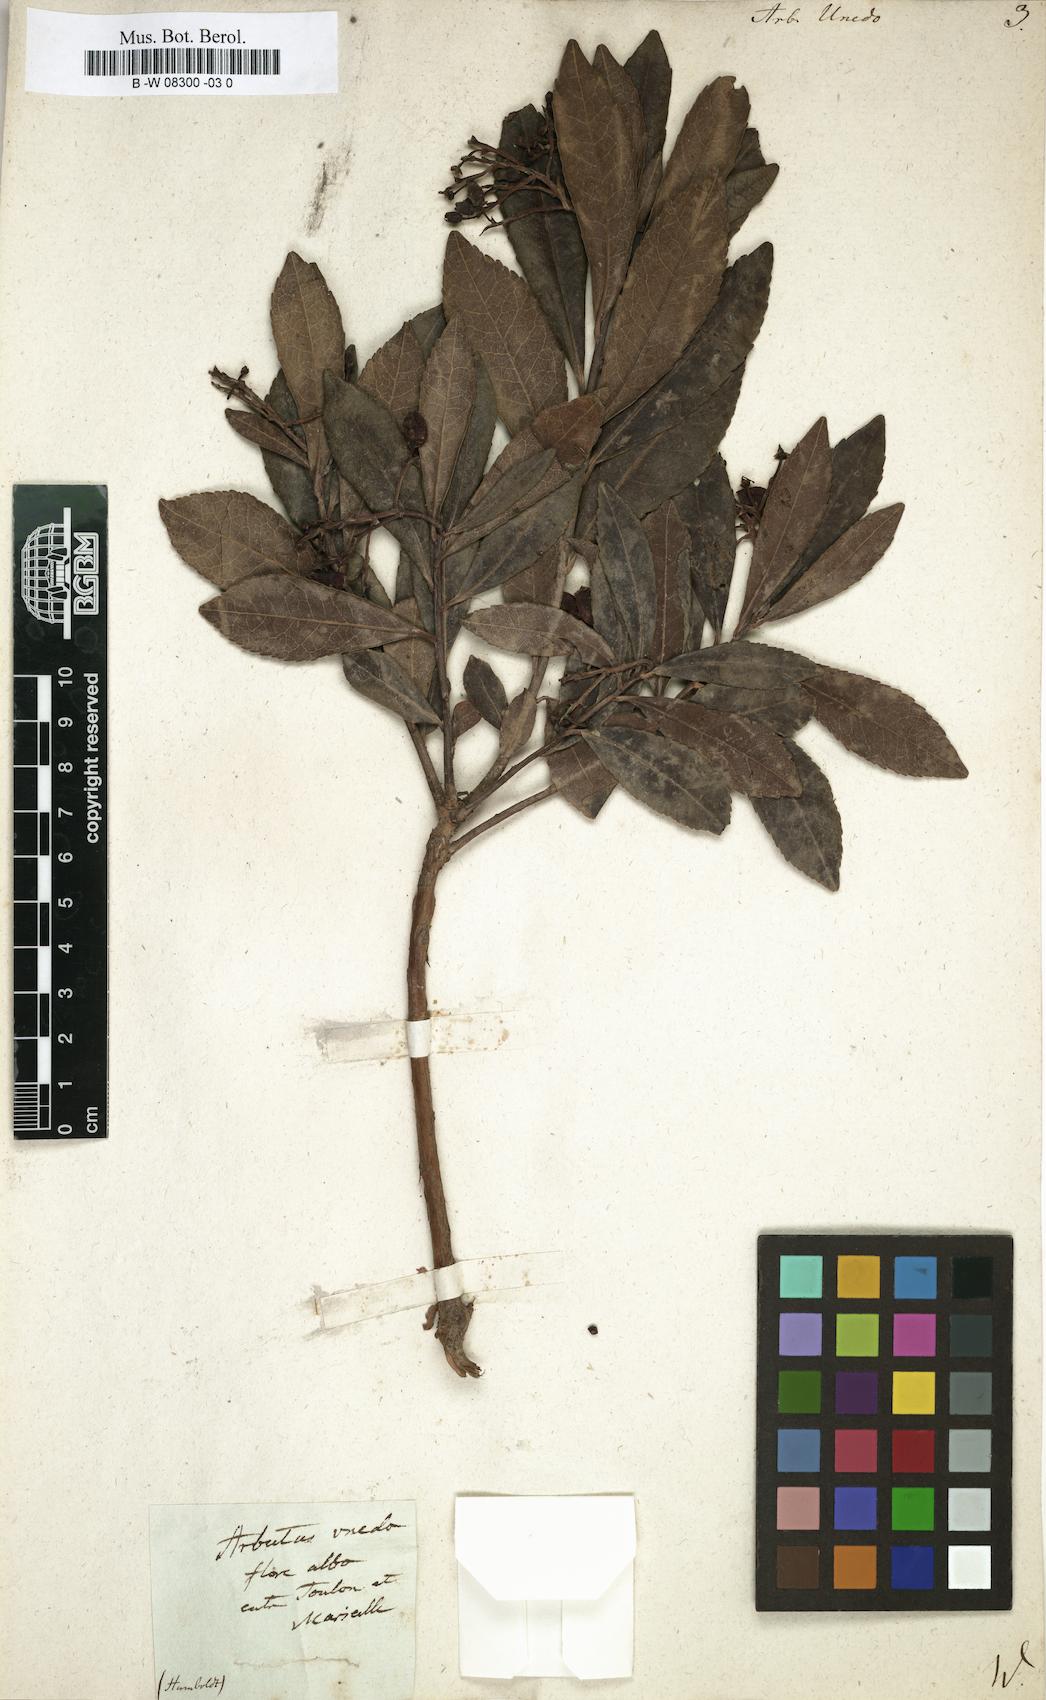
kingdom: Plantae
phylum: Tracheophyta
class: Magnoliopsida
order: Ericales
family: Ericaceae
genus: Arbutus
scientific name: Arbutus unedo
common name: Strawberry-tree
